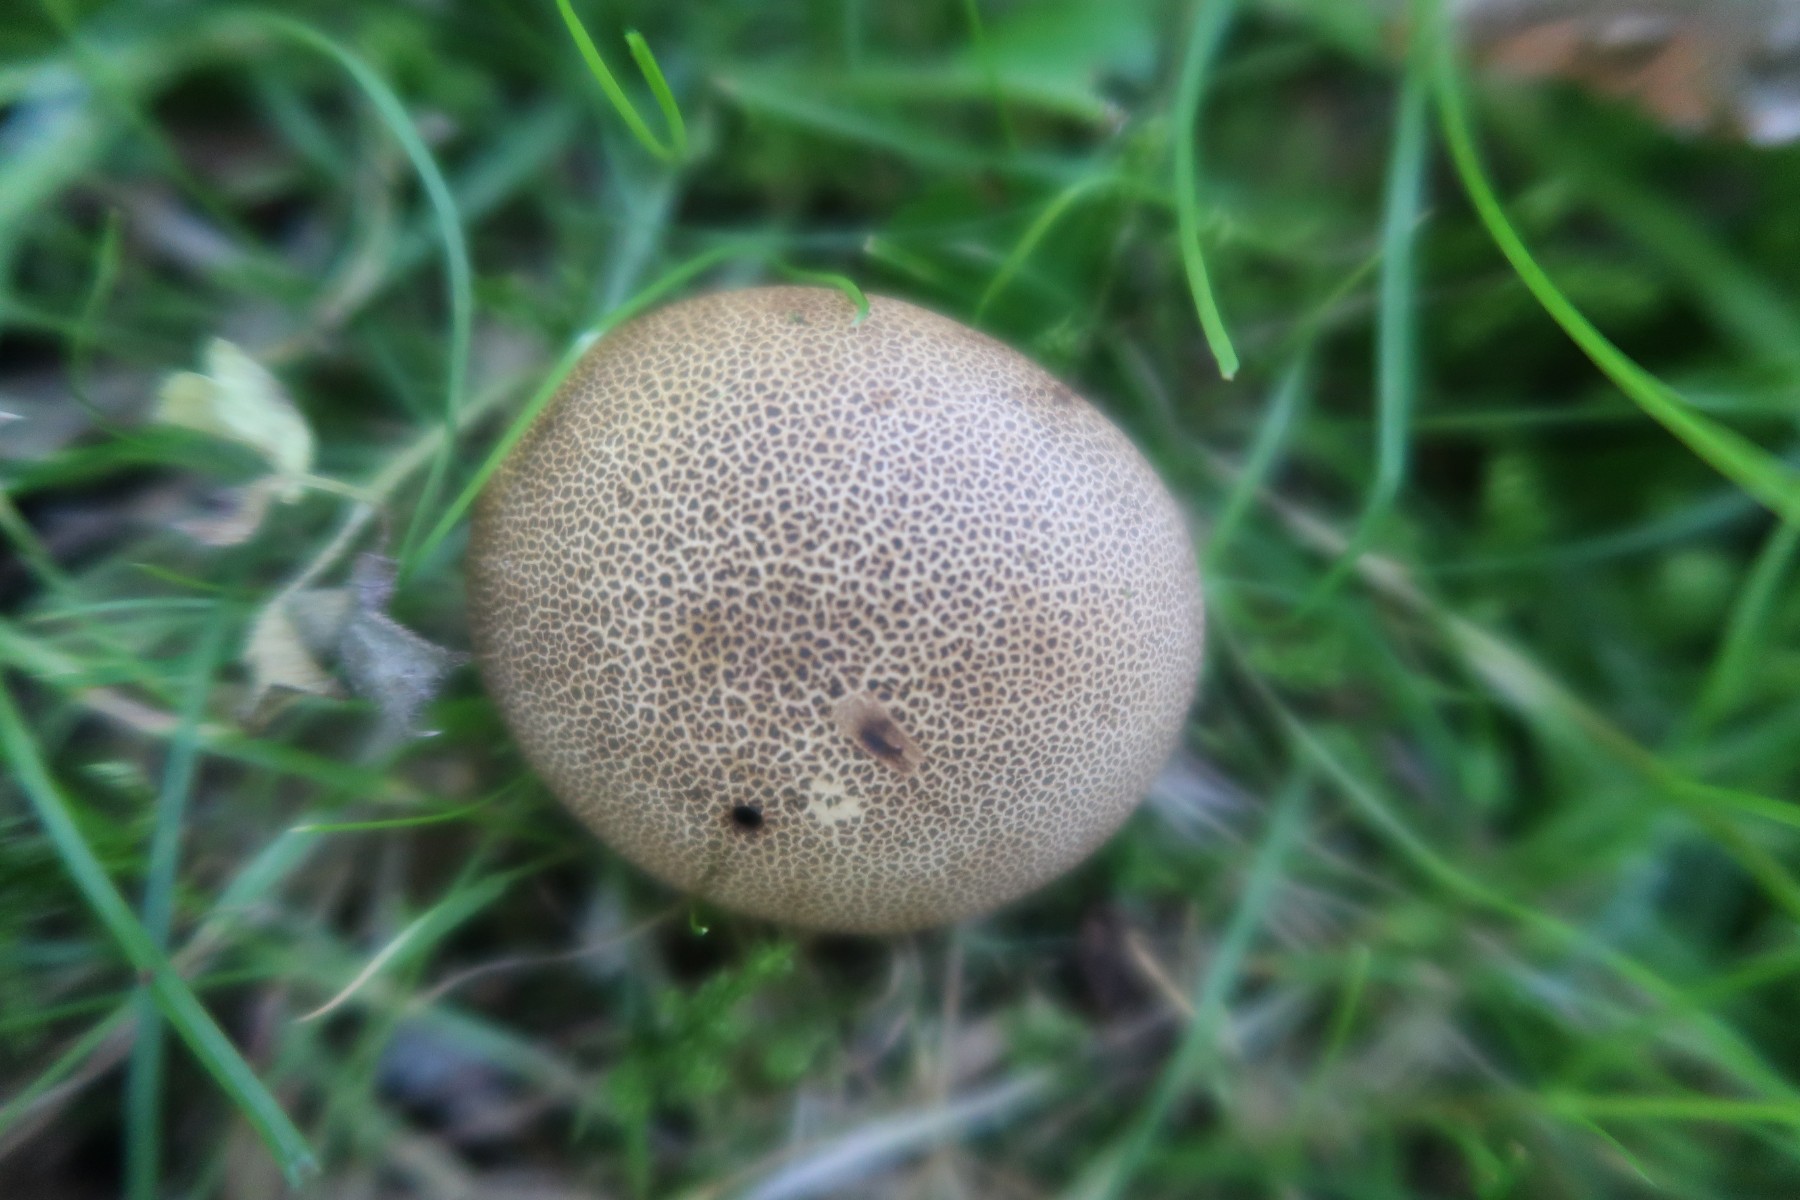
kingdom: Fungi
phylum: Basidiomycota
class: Agaricomycetes
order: Boletales
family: Sclerodermataceae
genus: Scleroderma
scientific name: Scleroderma areolatum
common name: plettet bruskbold
